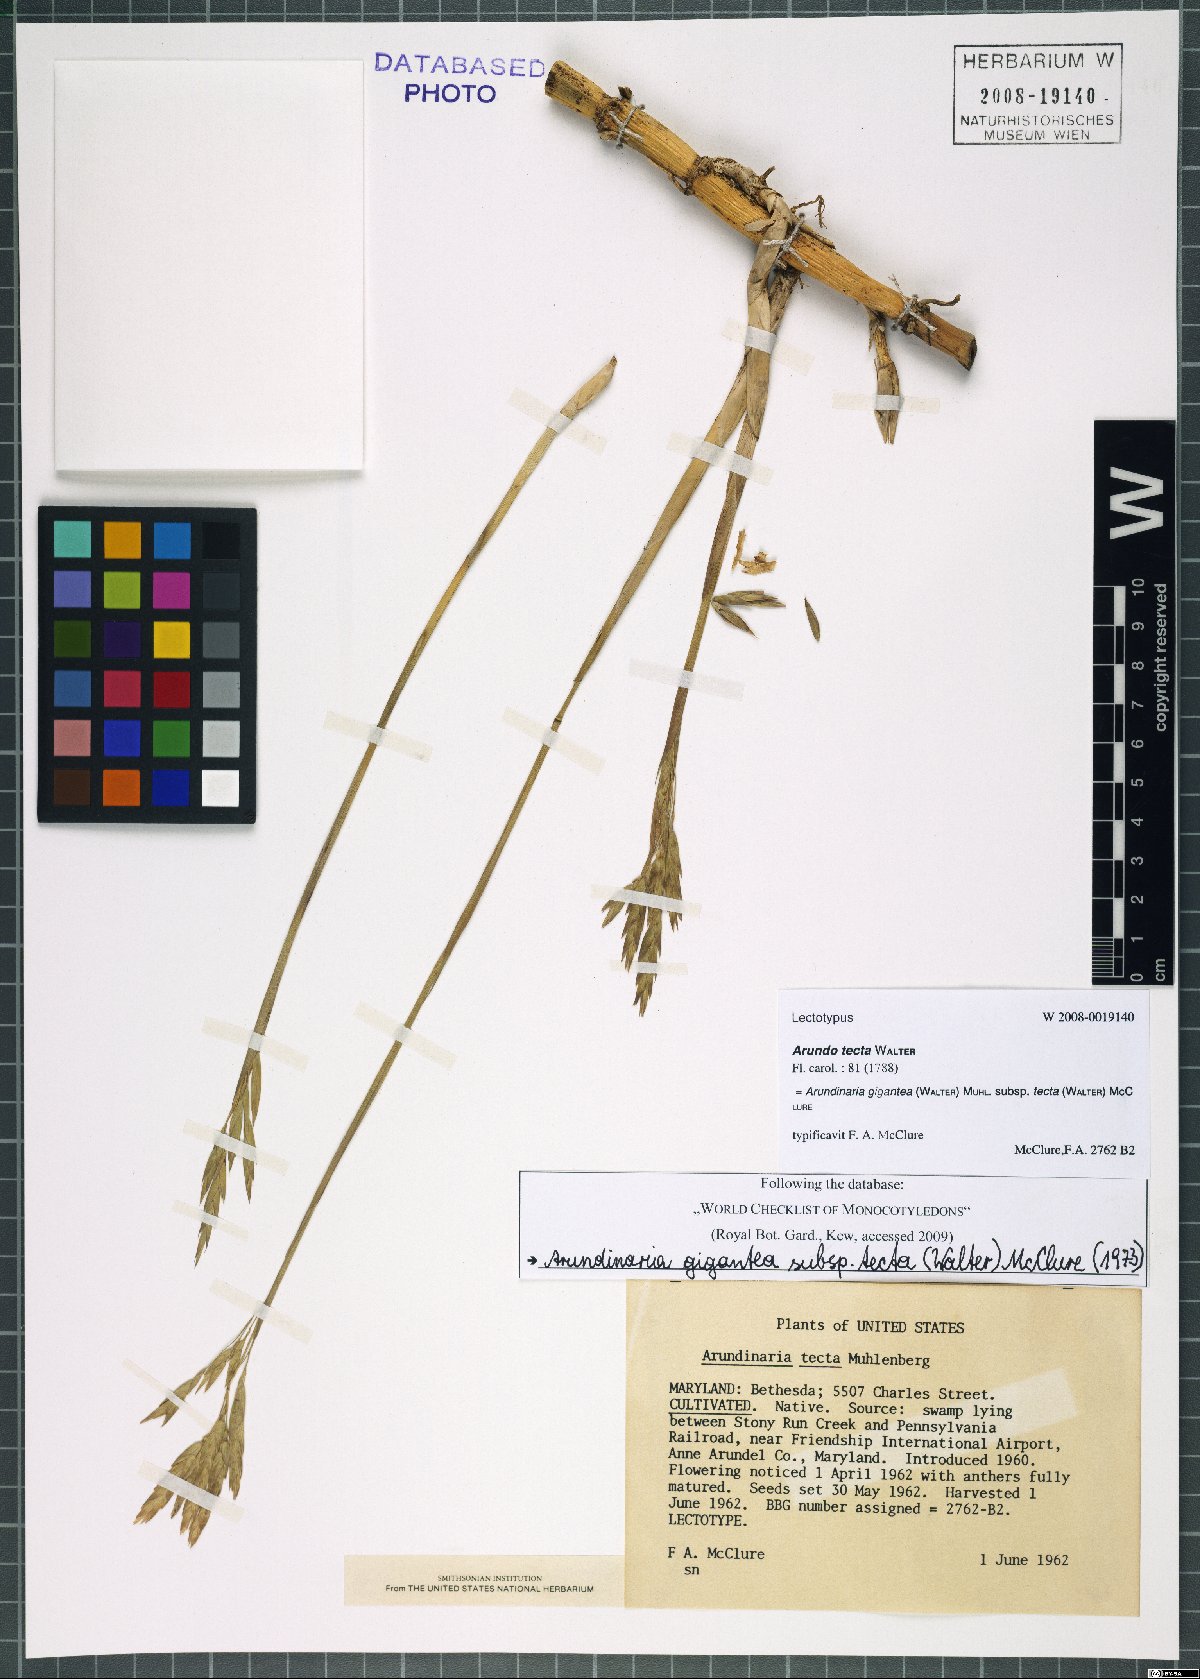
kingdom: Plantae
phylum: Tracheophyta
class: Liliopsida
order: Poales
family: Poaceae
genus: Arundinaria
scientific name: Arundinaria tecta
